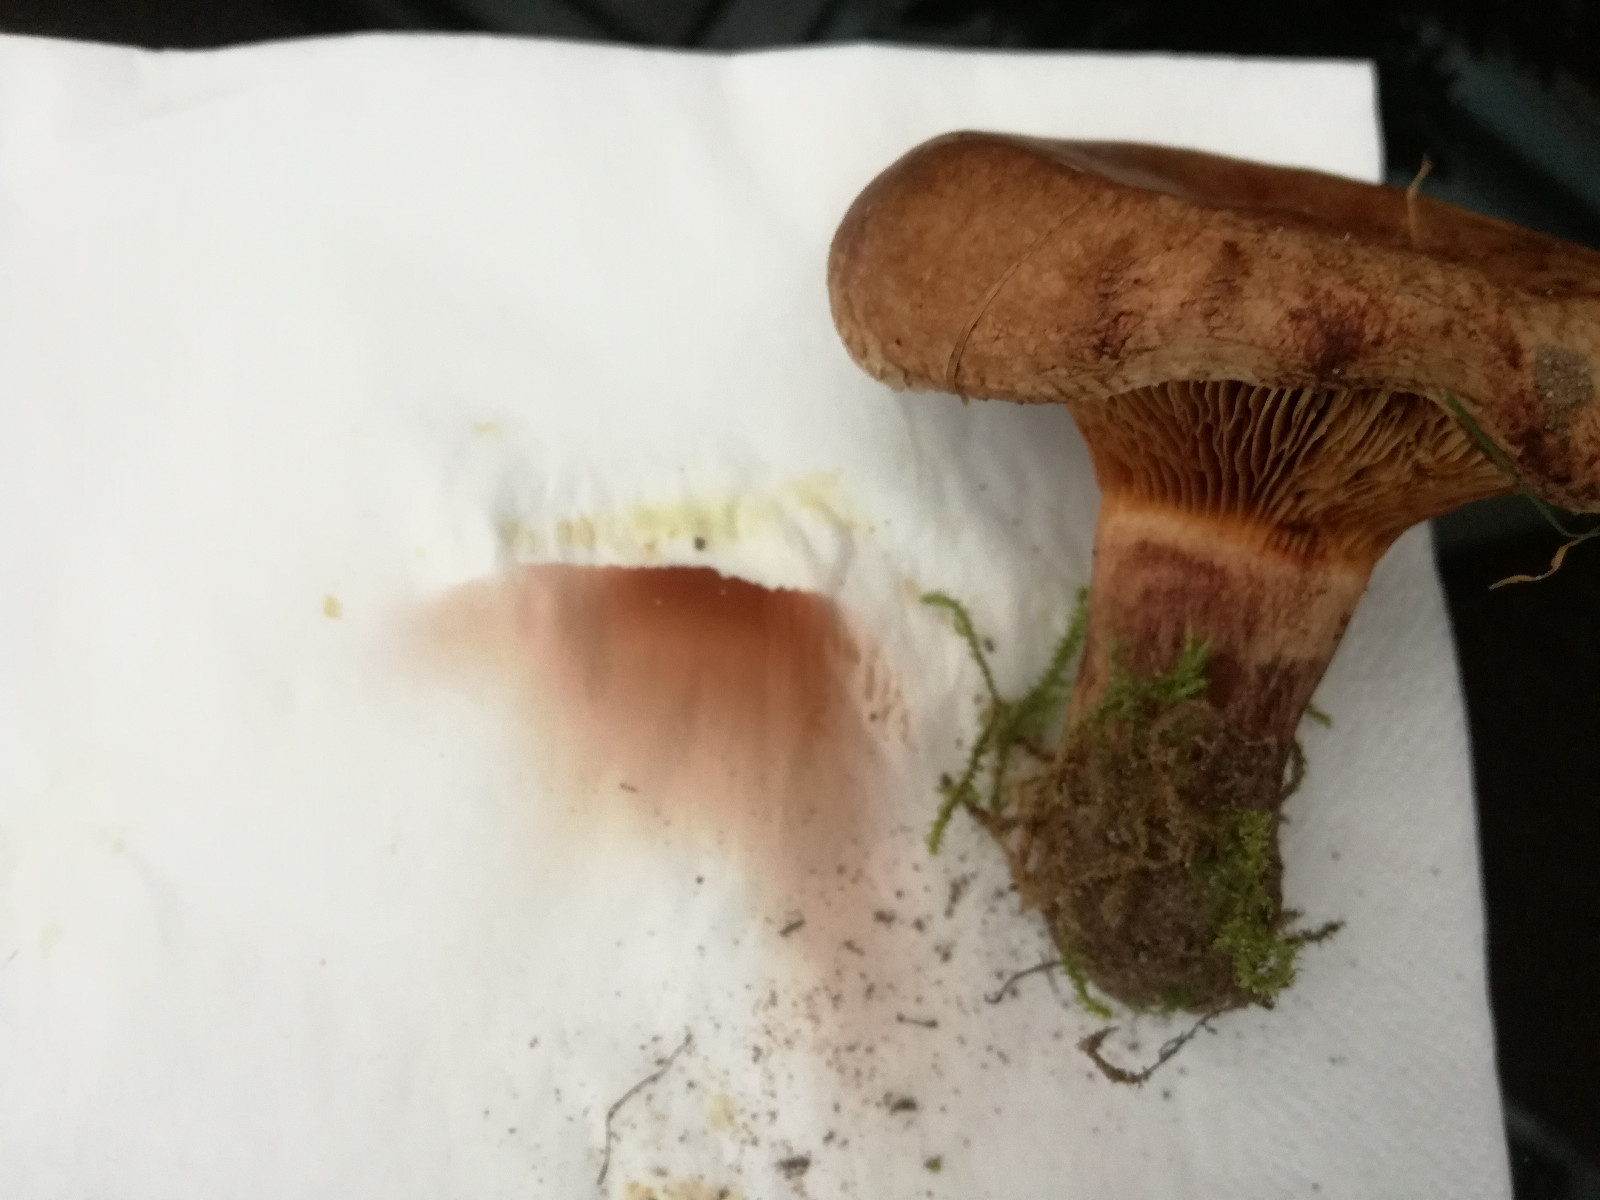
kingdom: Fungi
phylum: Basidiomycota
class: Agaricomycetes
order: Boletales
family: Paxillaceae
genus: Paxillus
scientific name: Paxillus obscurisporus
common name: mahognisporet netbladhat
